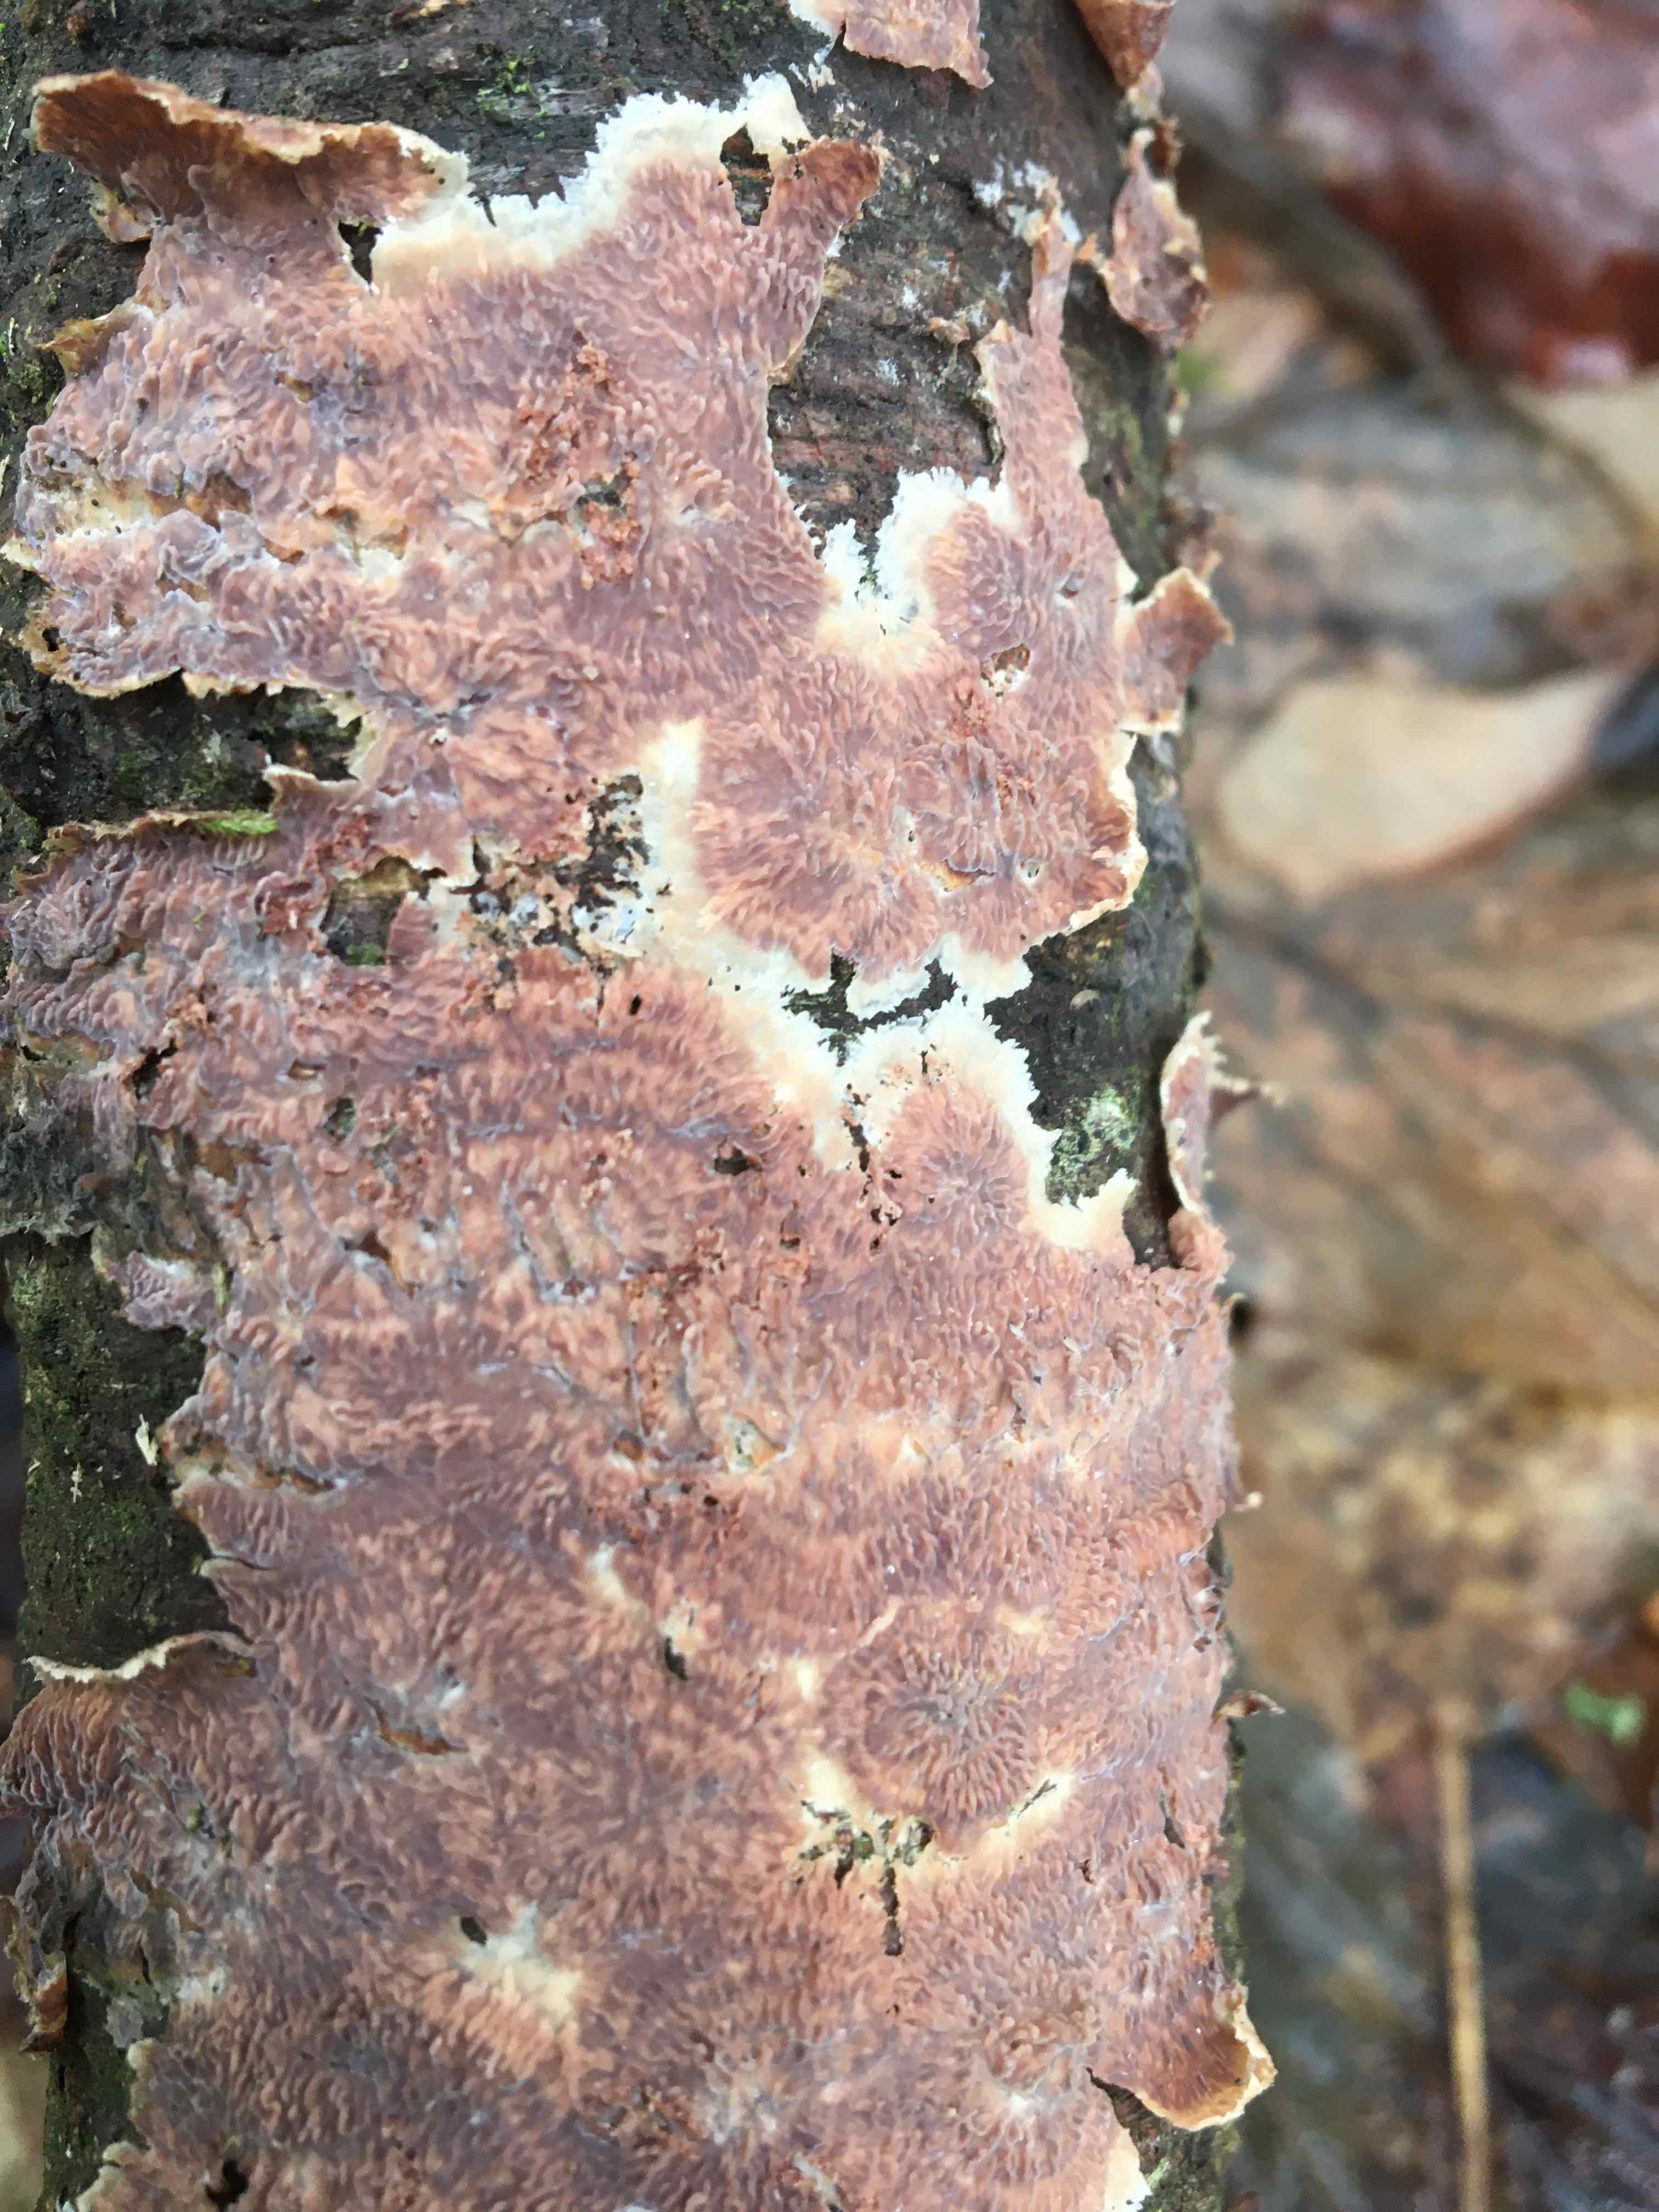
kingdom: Fungi
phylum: Basidiomycota
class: Agaricomycetes
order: Polyporales
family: Meruliaceae
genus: Phlebia
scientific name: Phlebia radiata
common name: stråle-åresvamp
